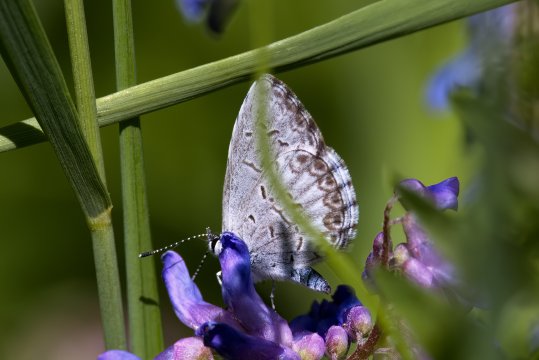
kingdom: Animalia
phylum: Arthropoda
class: Insecta
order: Lepidoptera
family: Lycaenidae
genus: Celastrina
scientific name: Celastrina lucia
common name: Northern Spring Azure
